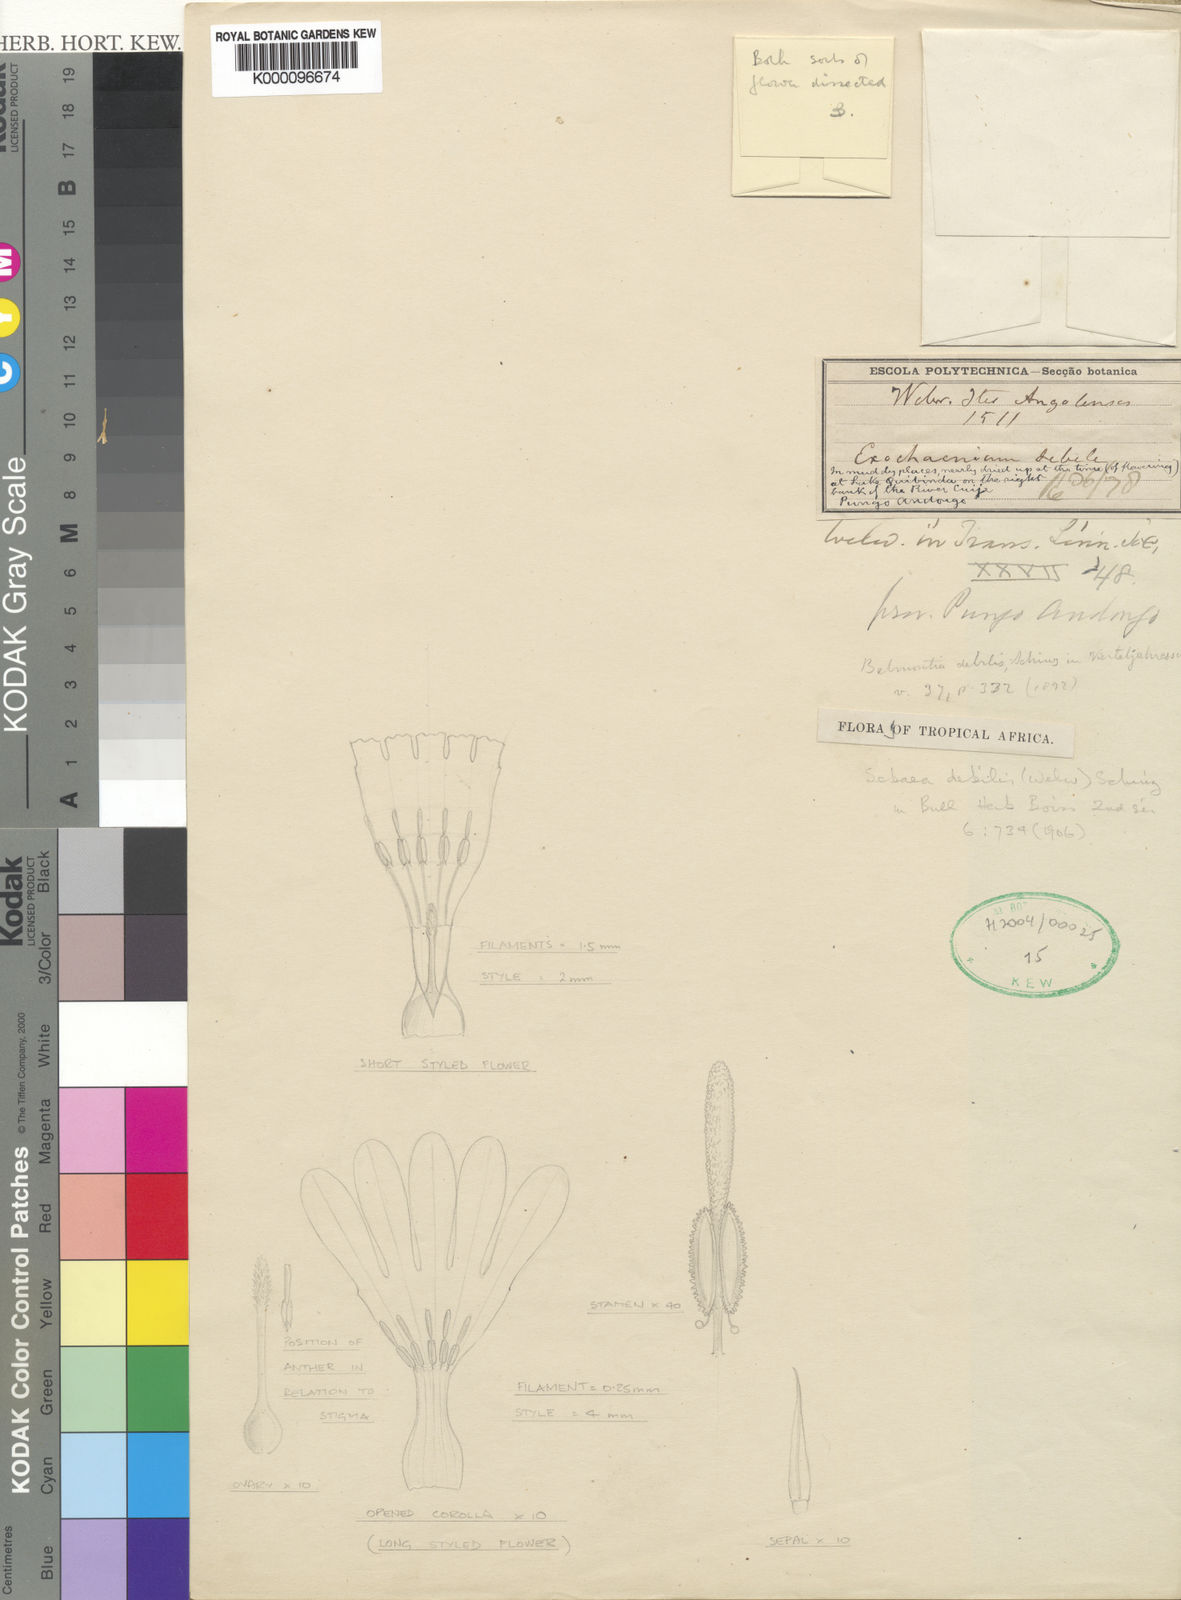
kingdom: Plantae
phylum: Tracheophyta
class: Magnoliopsida
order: Gentianales
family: Gentianaceae
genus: Exochaenium
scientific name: Exochaenium debile
